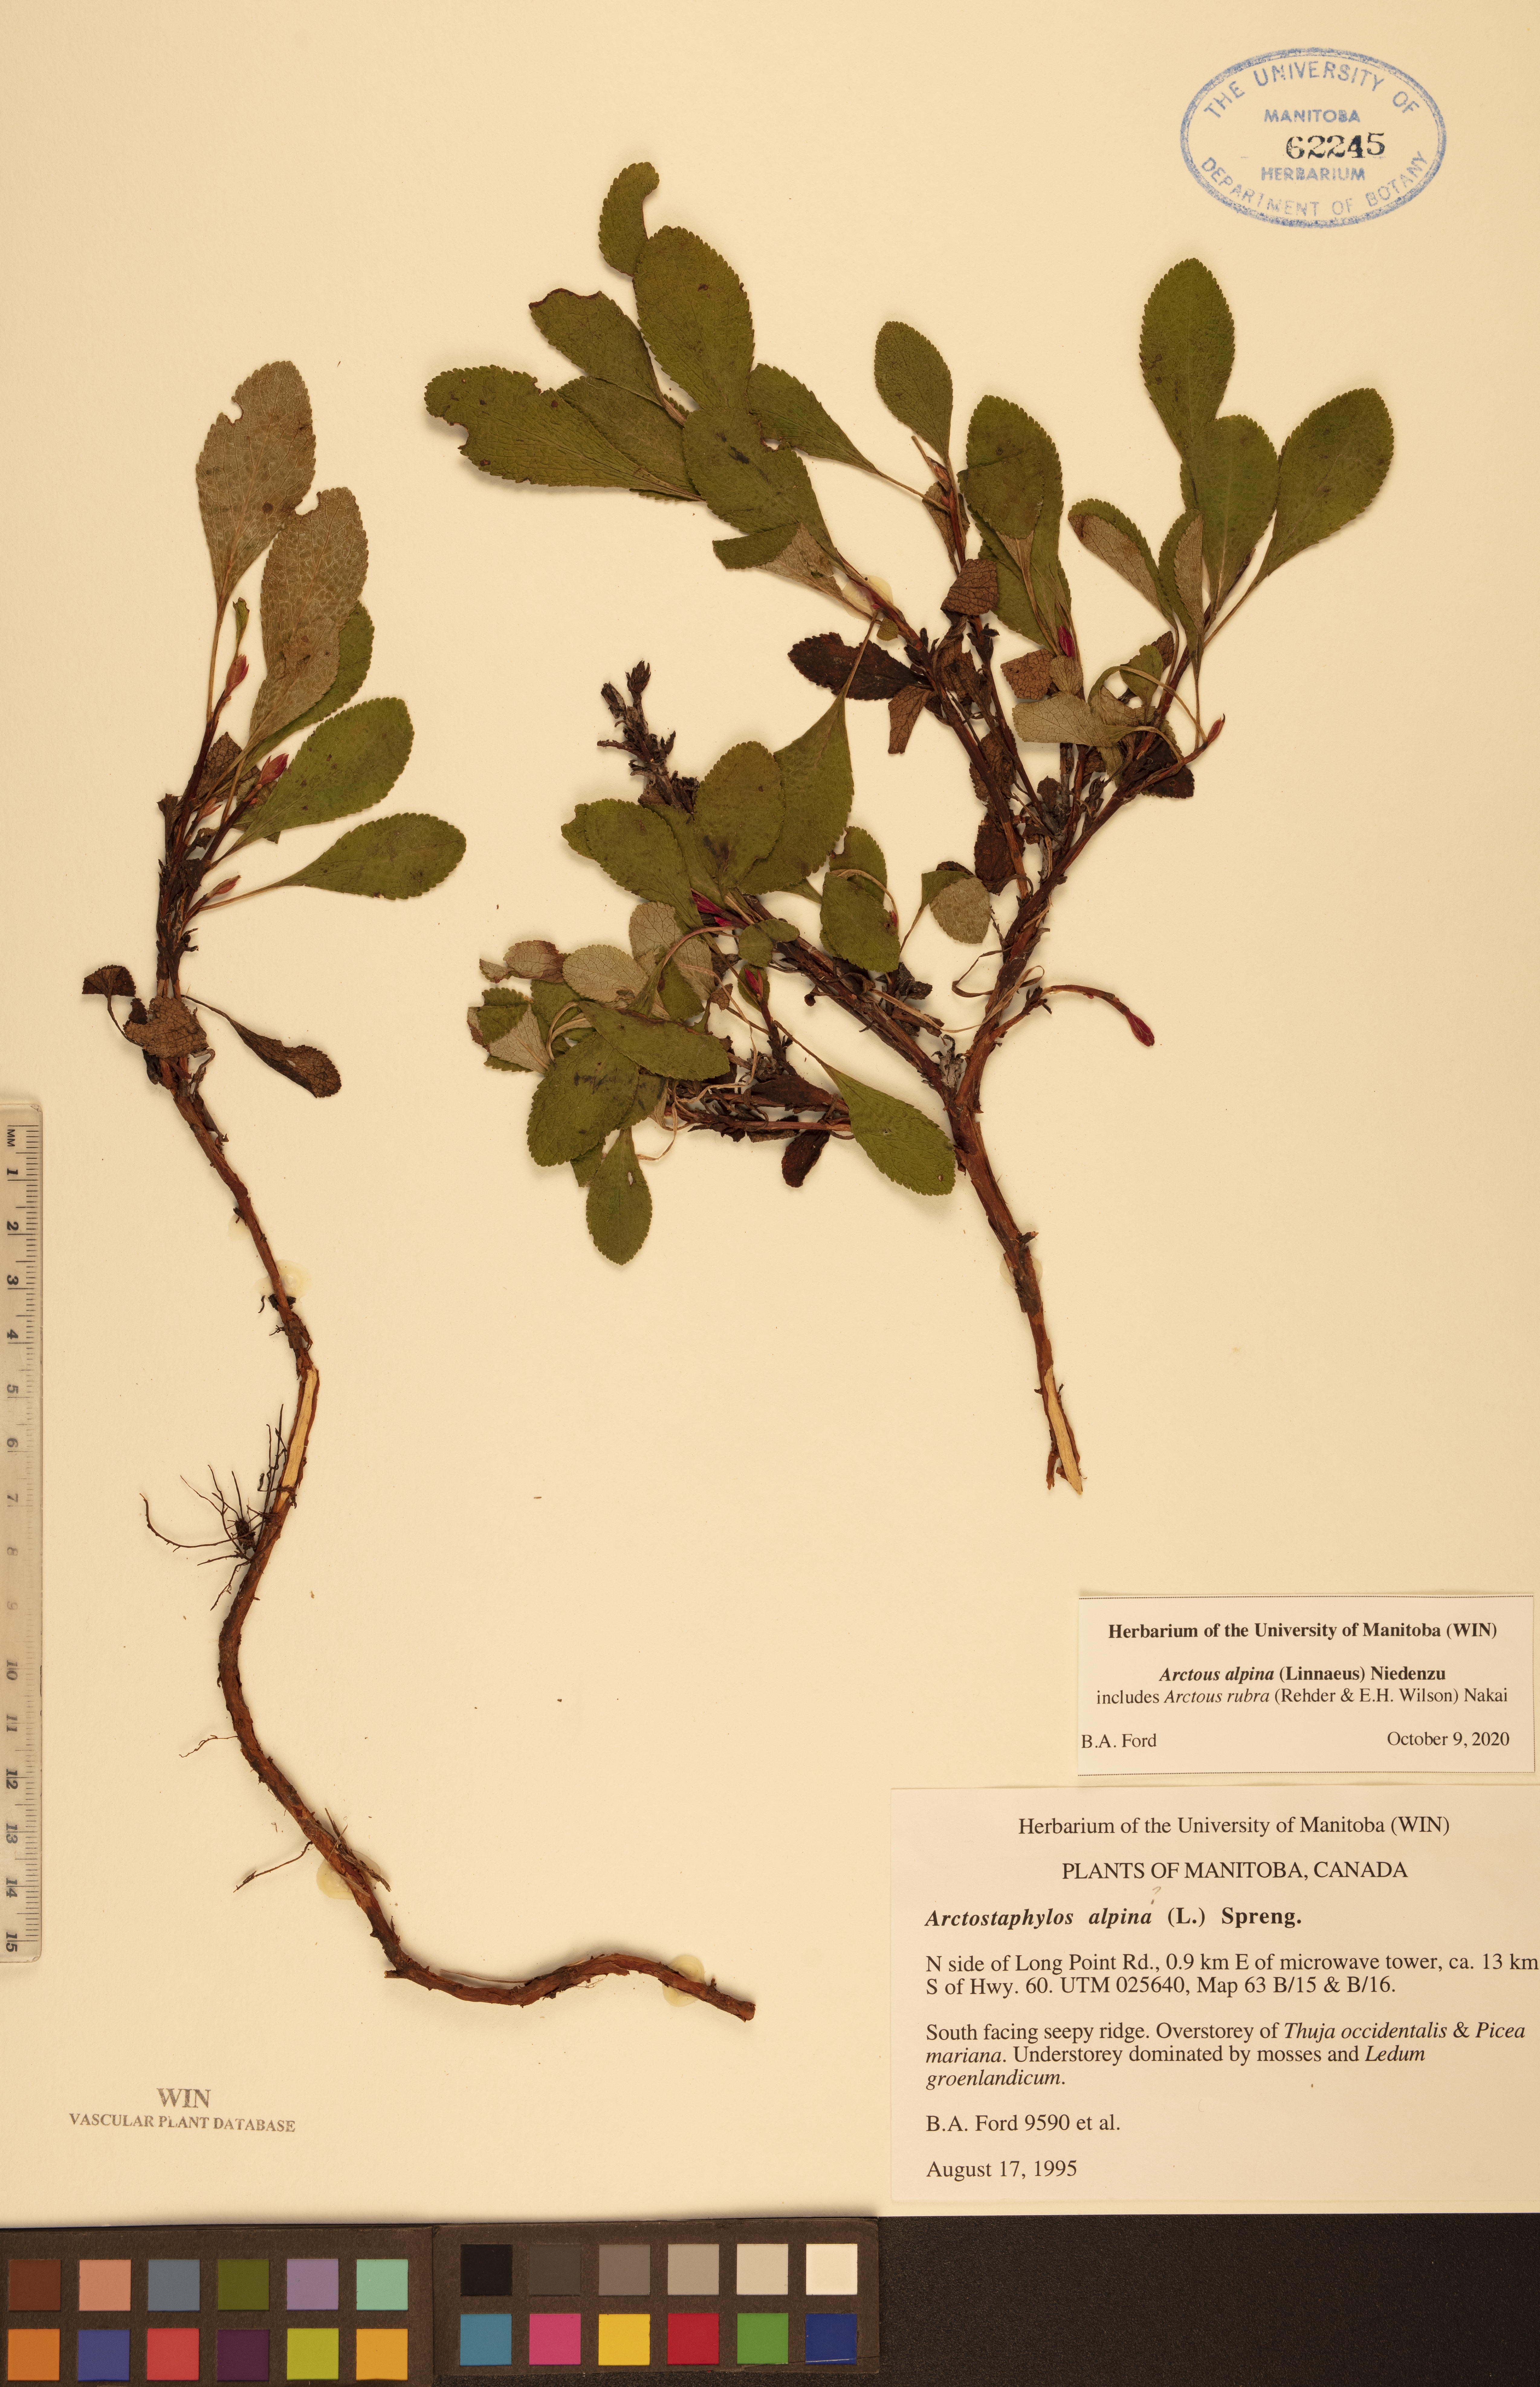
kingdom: Plantae
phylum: Tracheophyta
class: Magnoliopsida
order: Ericales
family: Ericaceae
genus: Arctostaphylos
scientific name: Arctostaphylos alpinus
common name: Alpine bearberry
